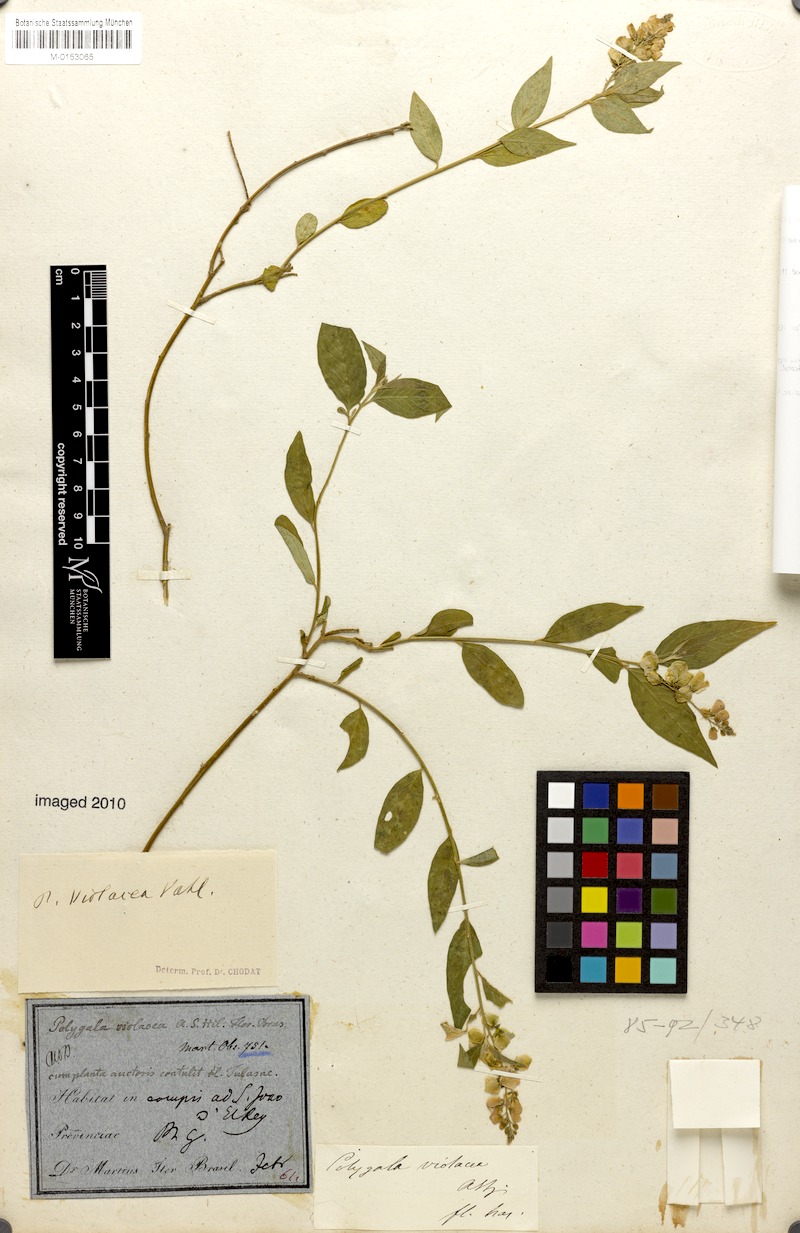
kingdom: Plantae
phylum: Tracheophyta
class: Magnoliopsida
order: Fabales
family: Polygalaceae
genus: Asemeia
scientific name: Asemeia monninoides
